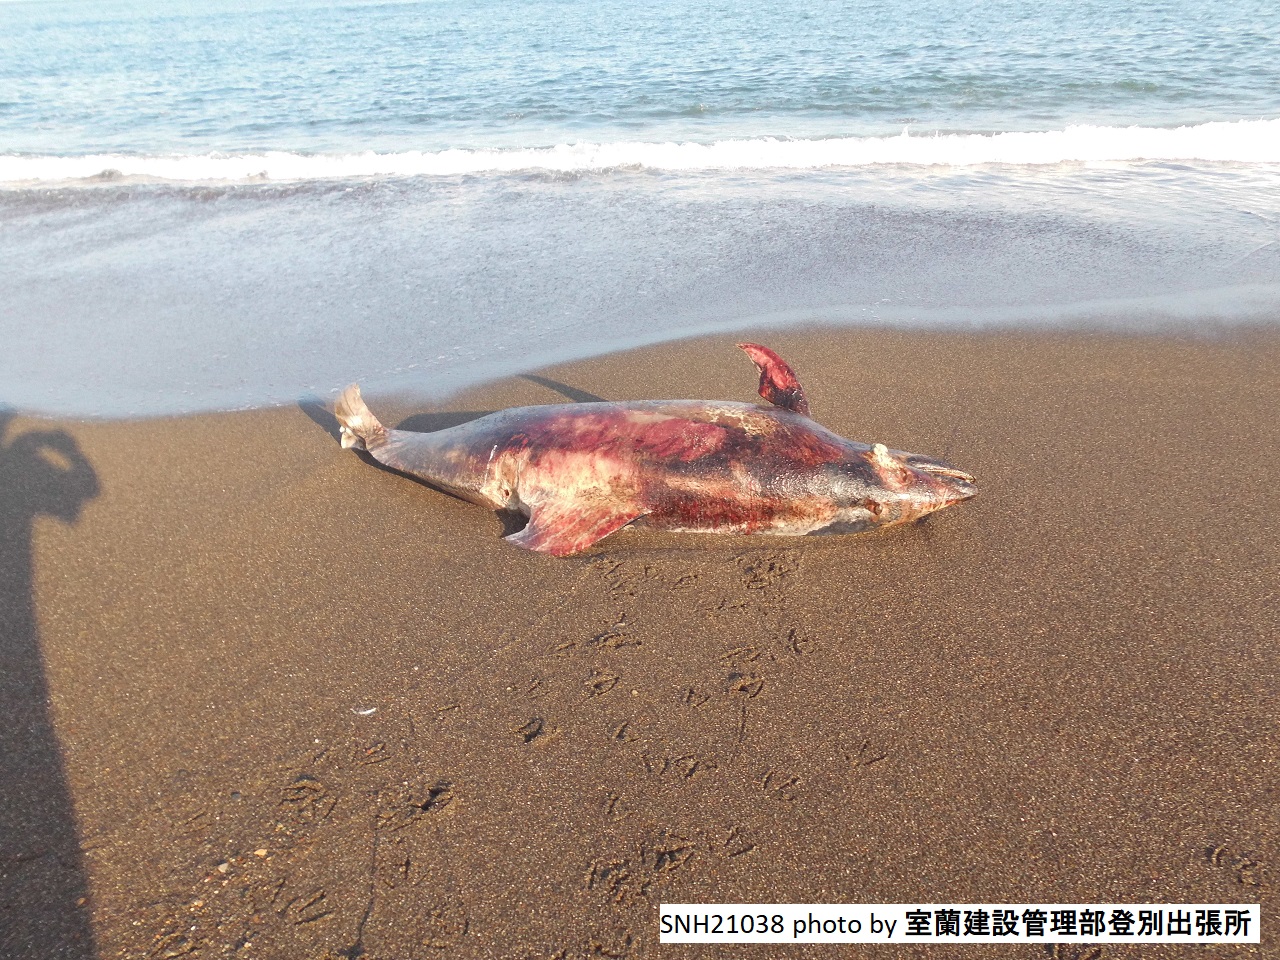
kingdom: Animalia
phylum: Chordata
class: Mammalia
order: Cetacea
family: Delphinidae
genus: Lagenorhynchus
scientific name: Lagenorhynchus obliquidens
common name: Pacific white-sided dolphin
